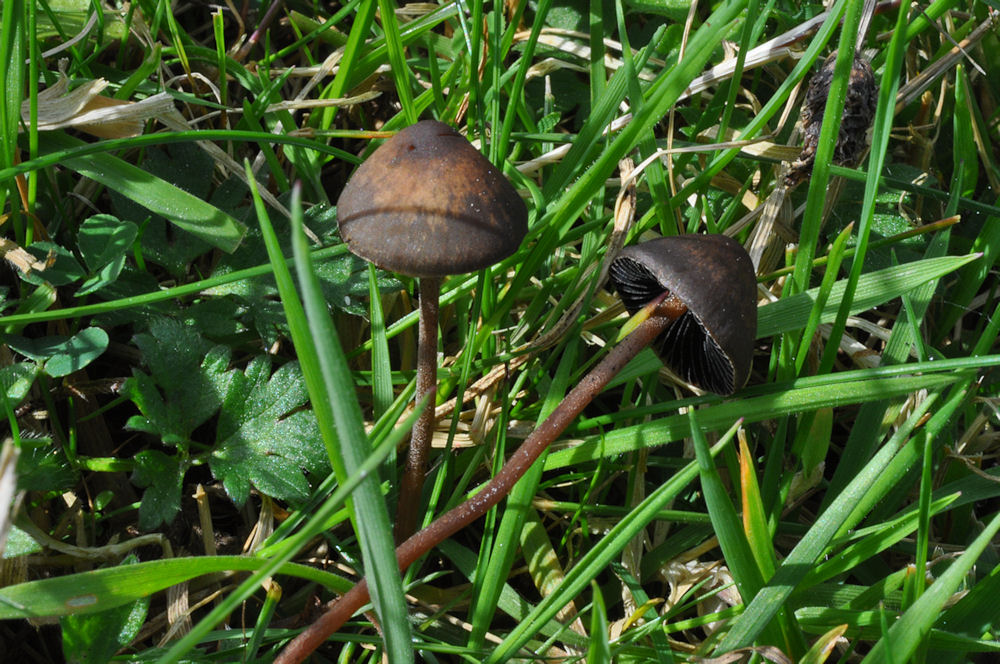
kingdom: Fungi
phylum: Basidiomycota
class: Agaricomycetes
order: Agaricales
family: Bolbitiaceae
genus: Panaeolus
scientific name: Panaeolus acuminatus
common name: høj glanshat
